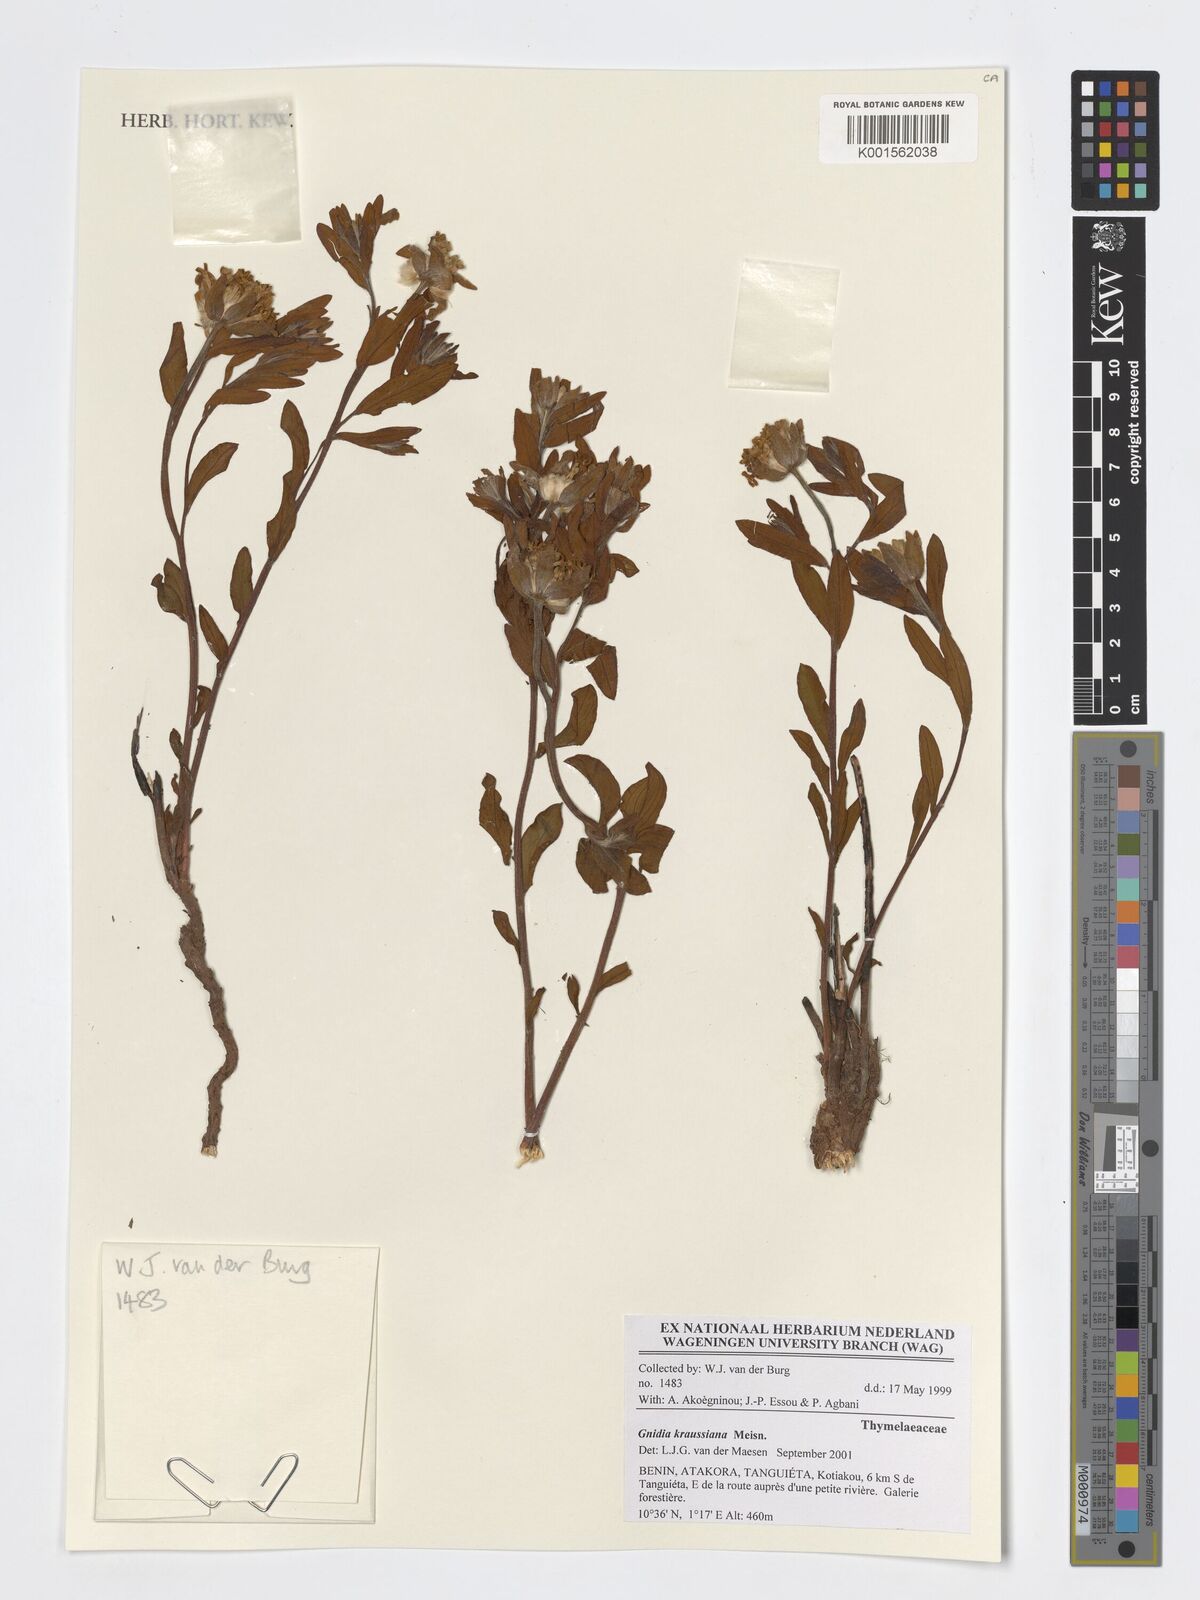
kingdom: Plantae
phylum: Tracheophyta
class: Magnoliopsida
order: Malvales
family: Thymelaeaceae
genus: Gnidia
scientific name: Gnidia kraussiana
